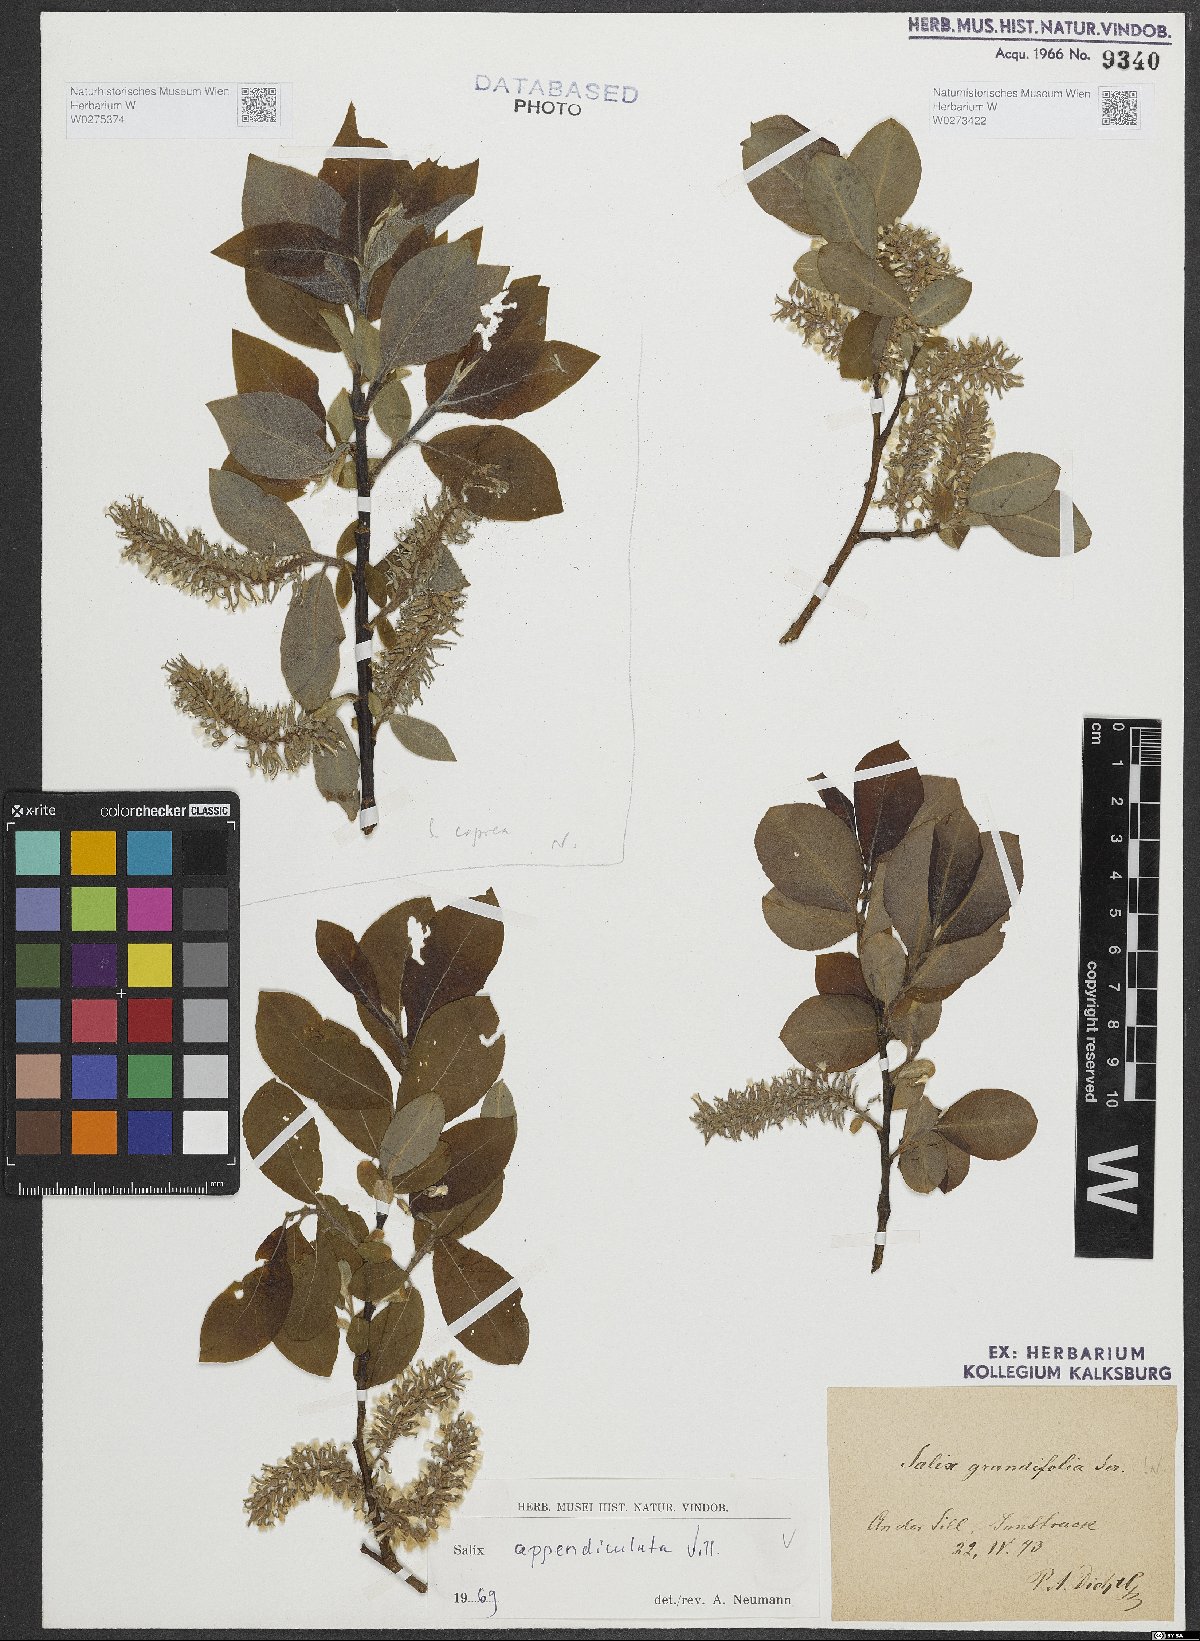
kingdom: Plantae
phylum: Tracheophyta
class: Magnoliopsida
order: Malpighiales
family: Salicaceae
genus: Salix
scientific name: Salix appendiculata
